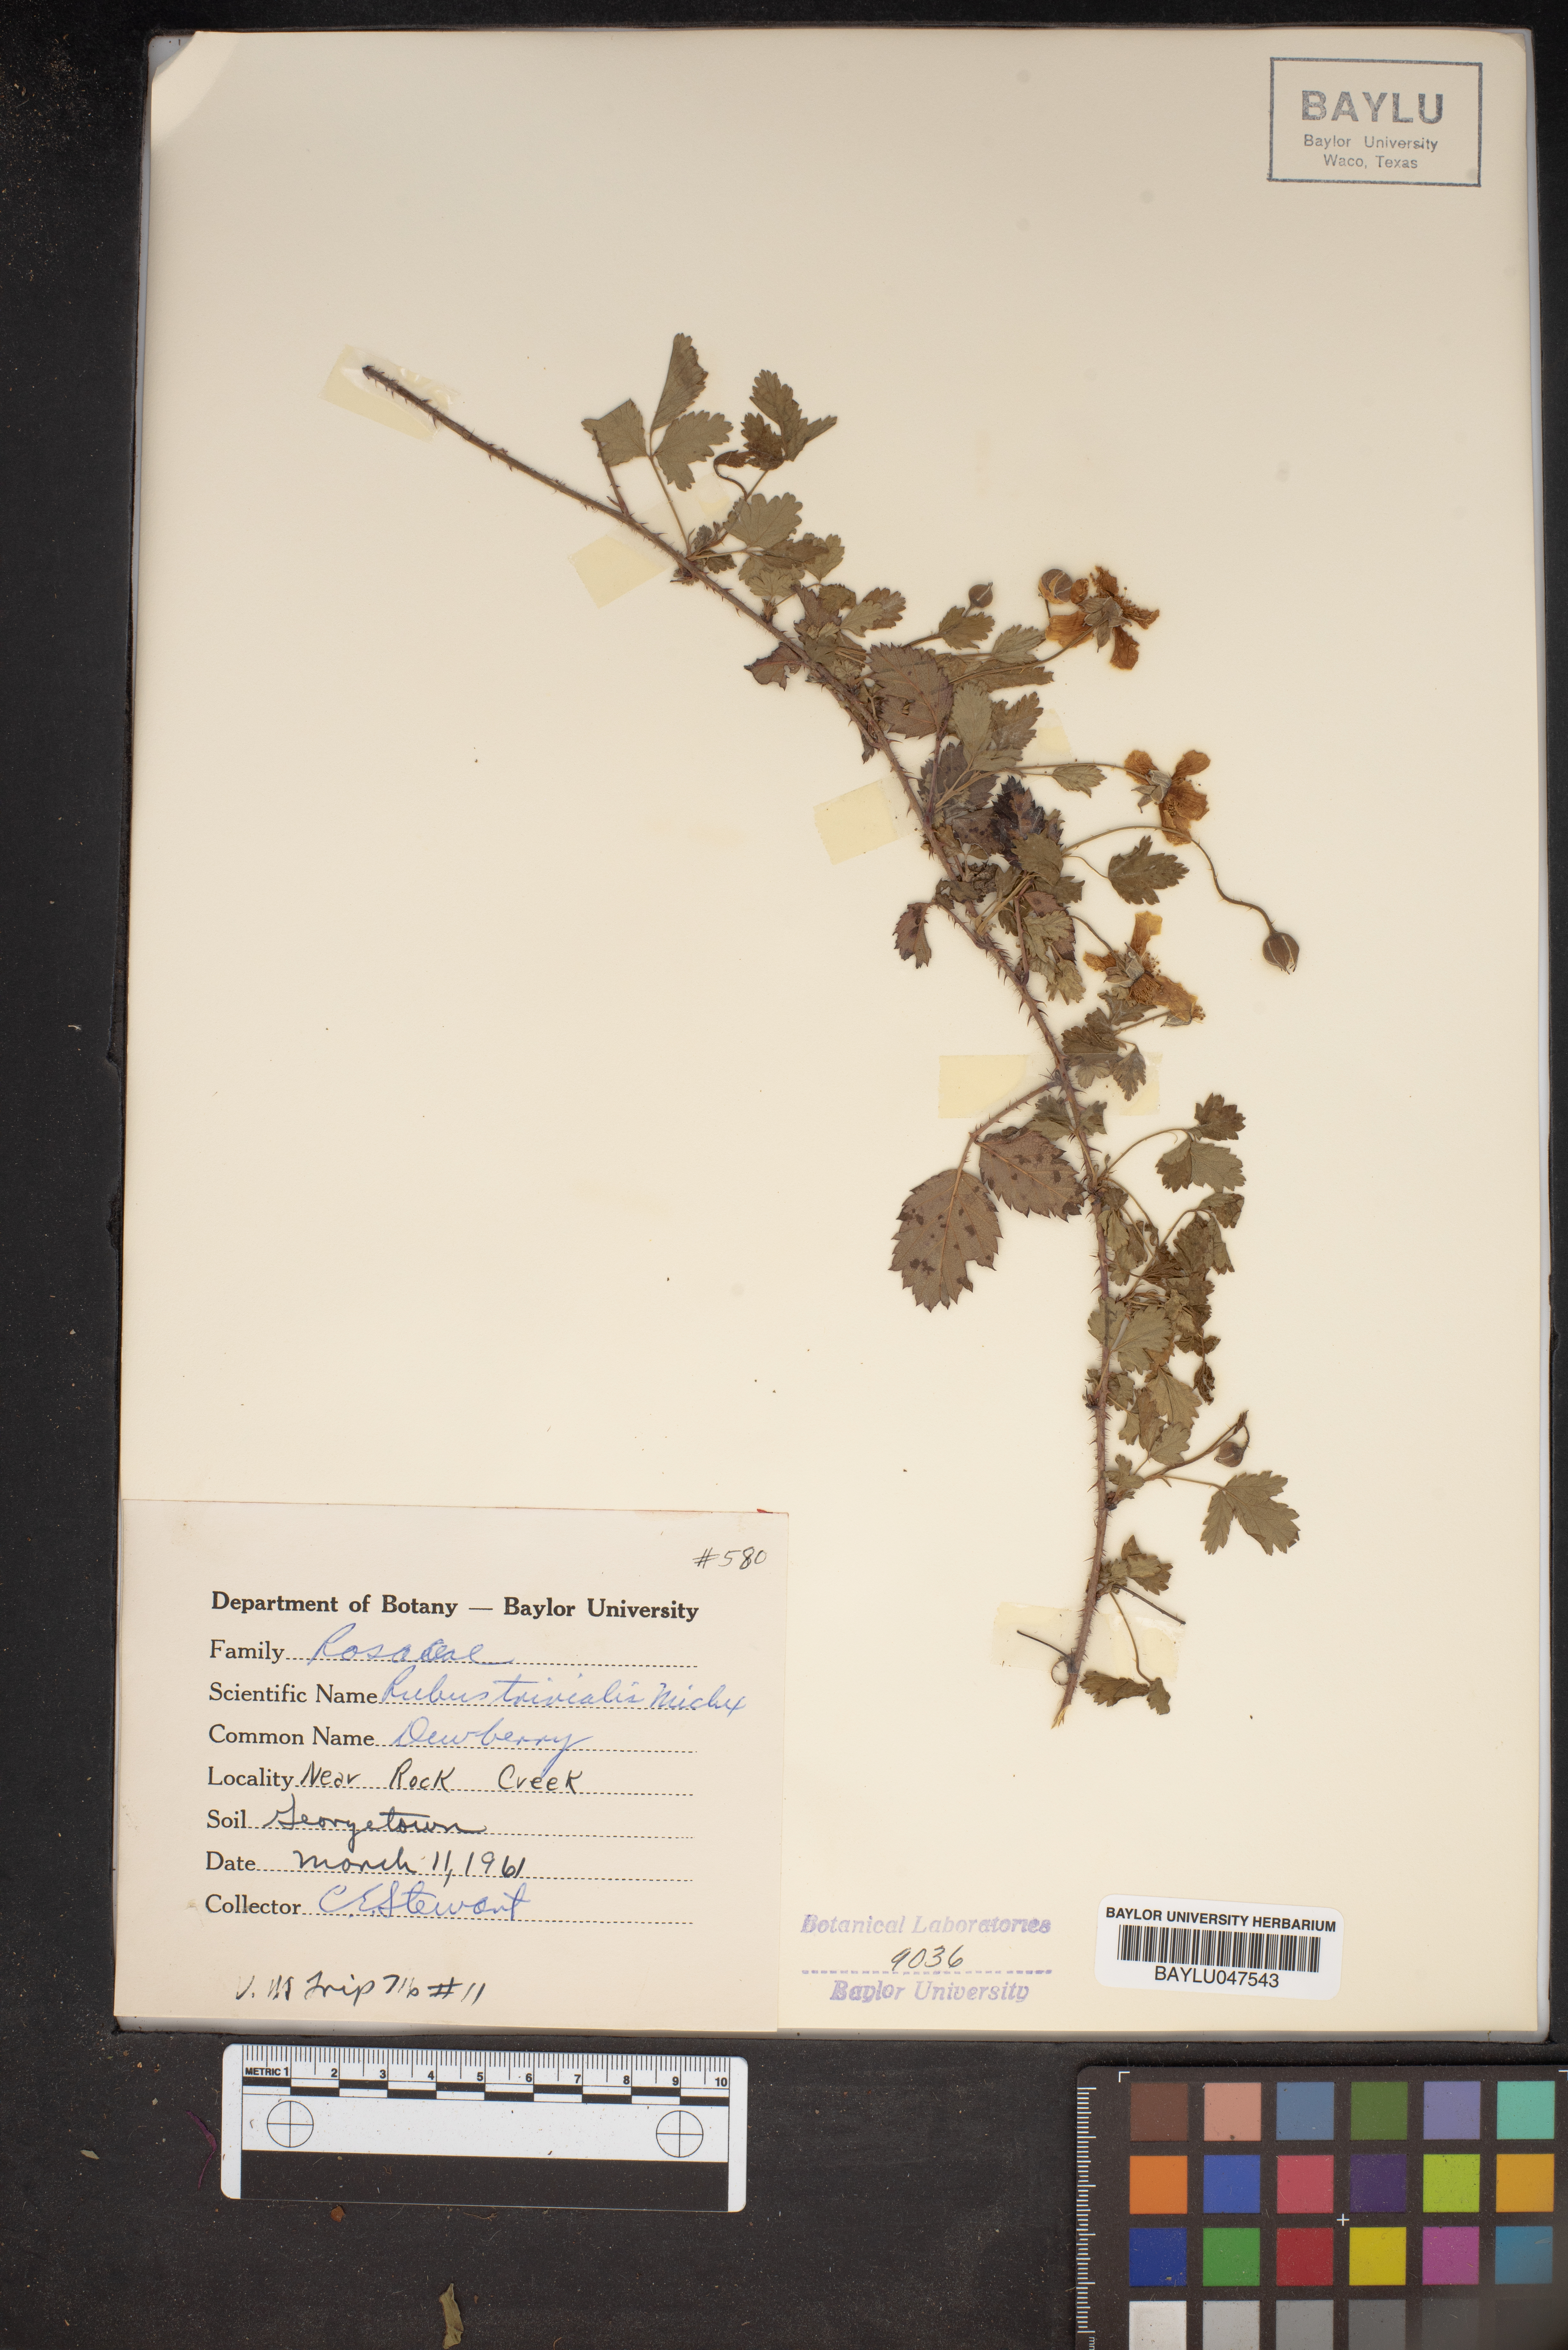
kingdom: Plantae
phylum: Tracheophyta
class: Magnoliopsida
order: Rosales
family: Rosaceae
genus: Rubus
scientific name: Rubus trivialis
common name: Southern dewberry
